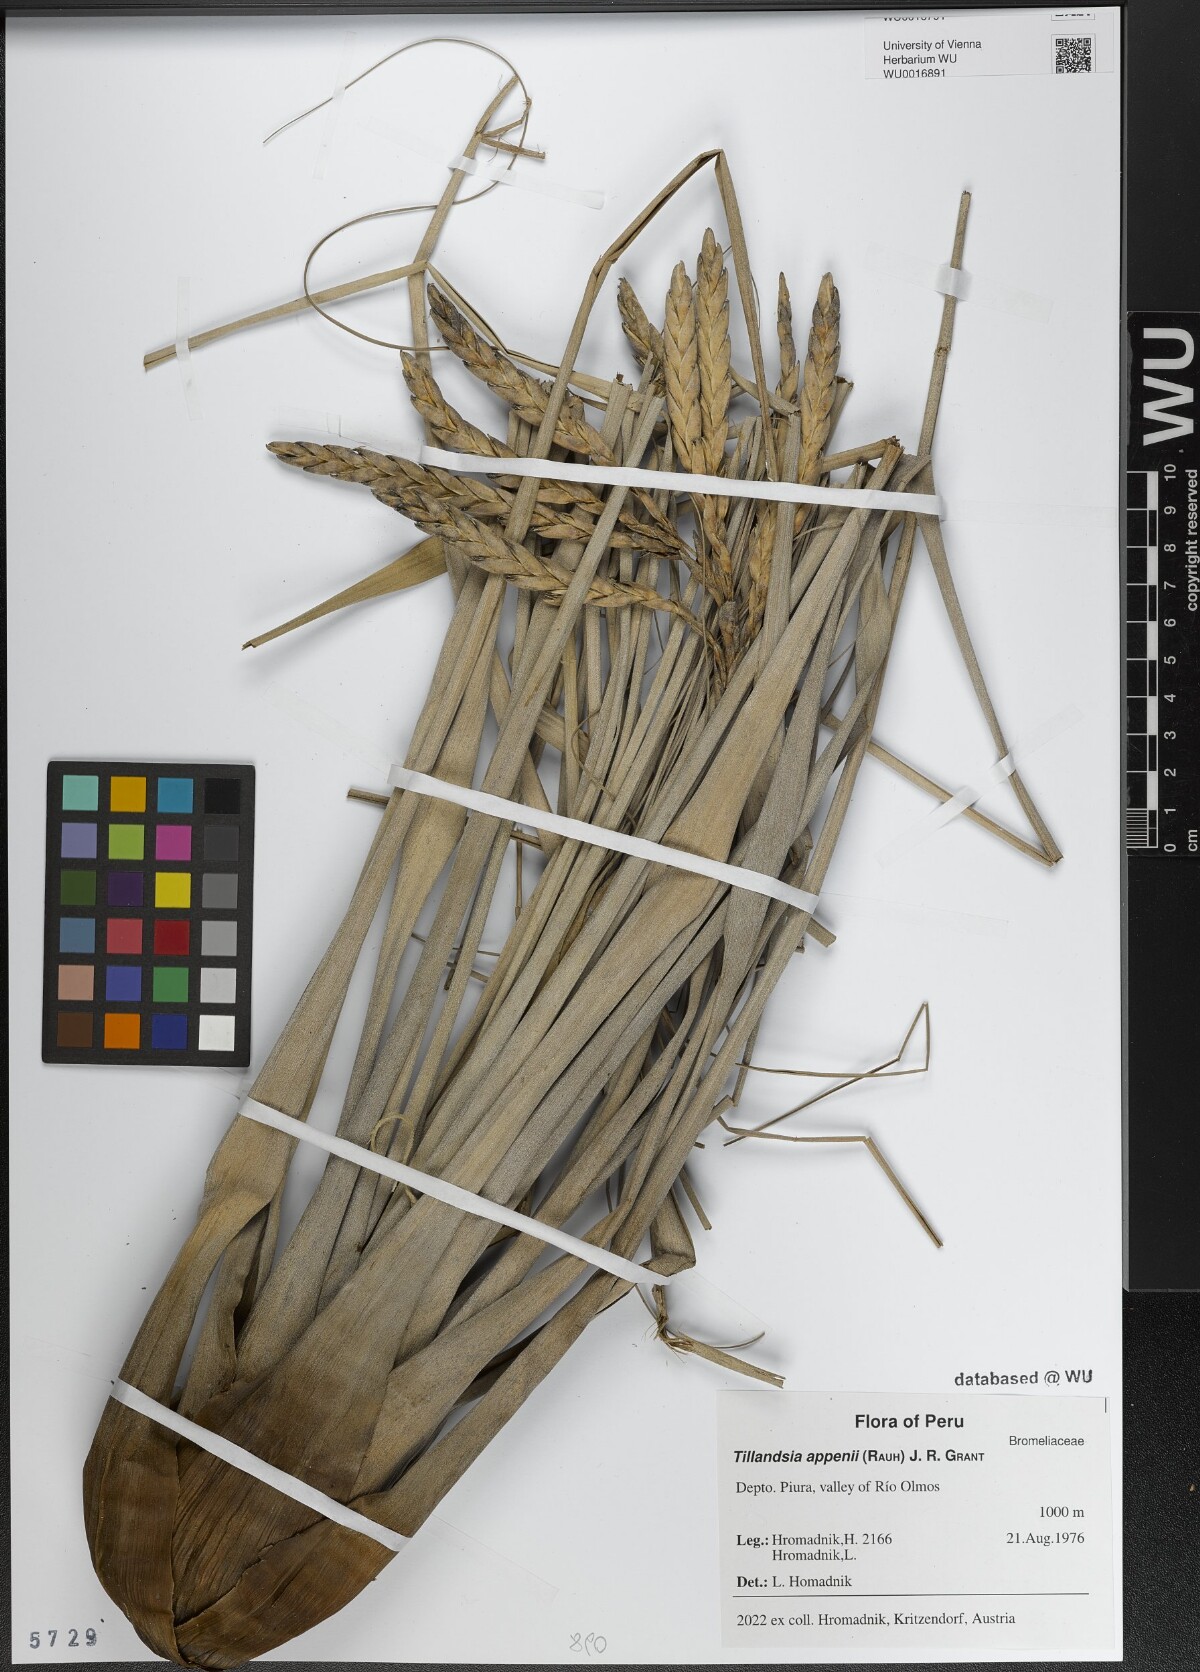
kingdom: Plantae
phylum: Tracheophyta
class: Liliopsida
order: Poales
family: Bromeliaceae
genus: Tillandsia
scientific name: Tillandsia appenii
